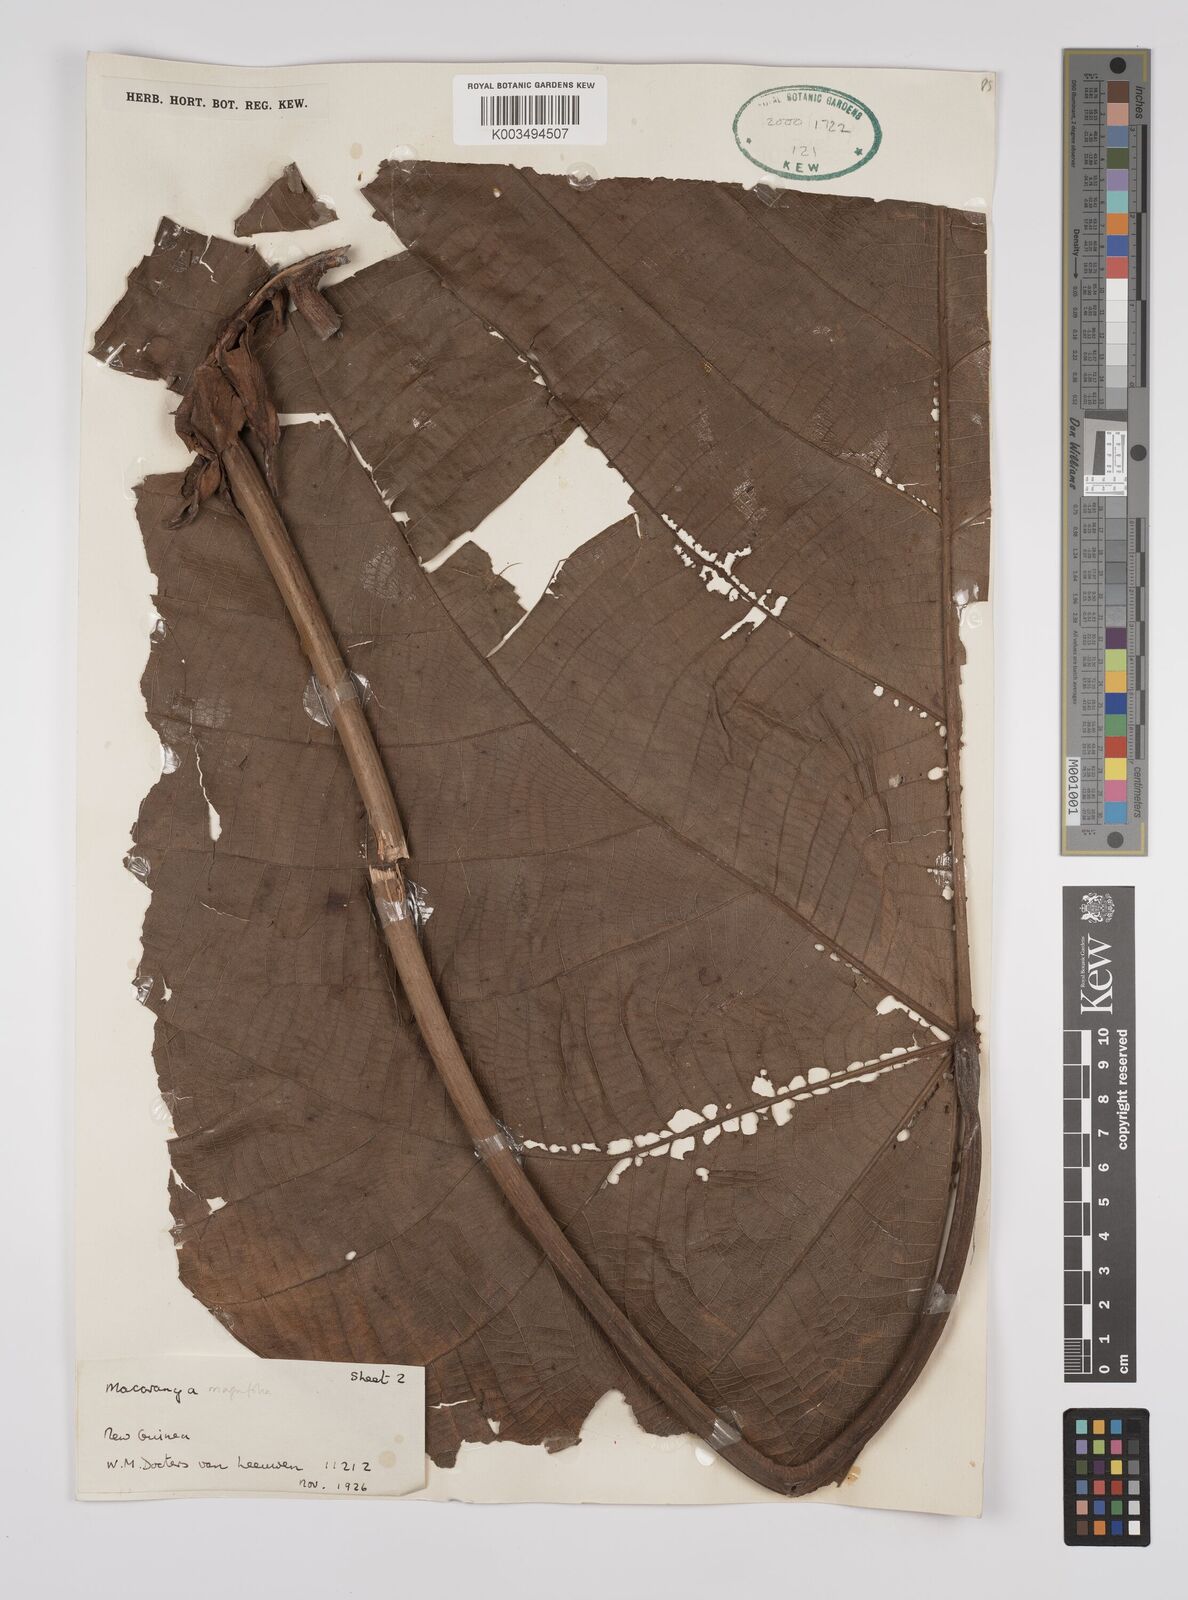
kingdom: Plantae
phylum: Tracheophyta
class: Magnoliopsida
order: Malpighiales
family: Euphorbiaceae
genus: Macaranga
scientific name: Macaranga magnifolia
